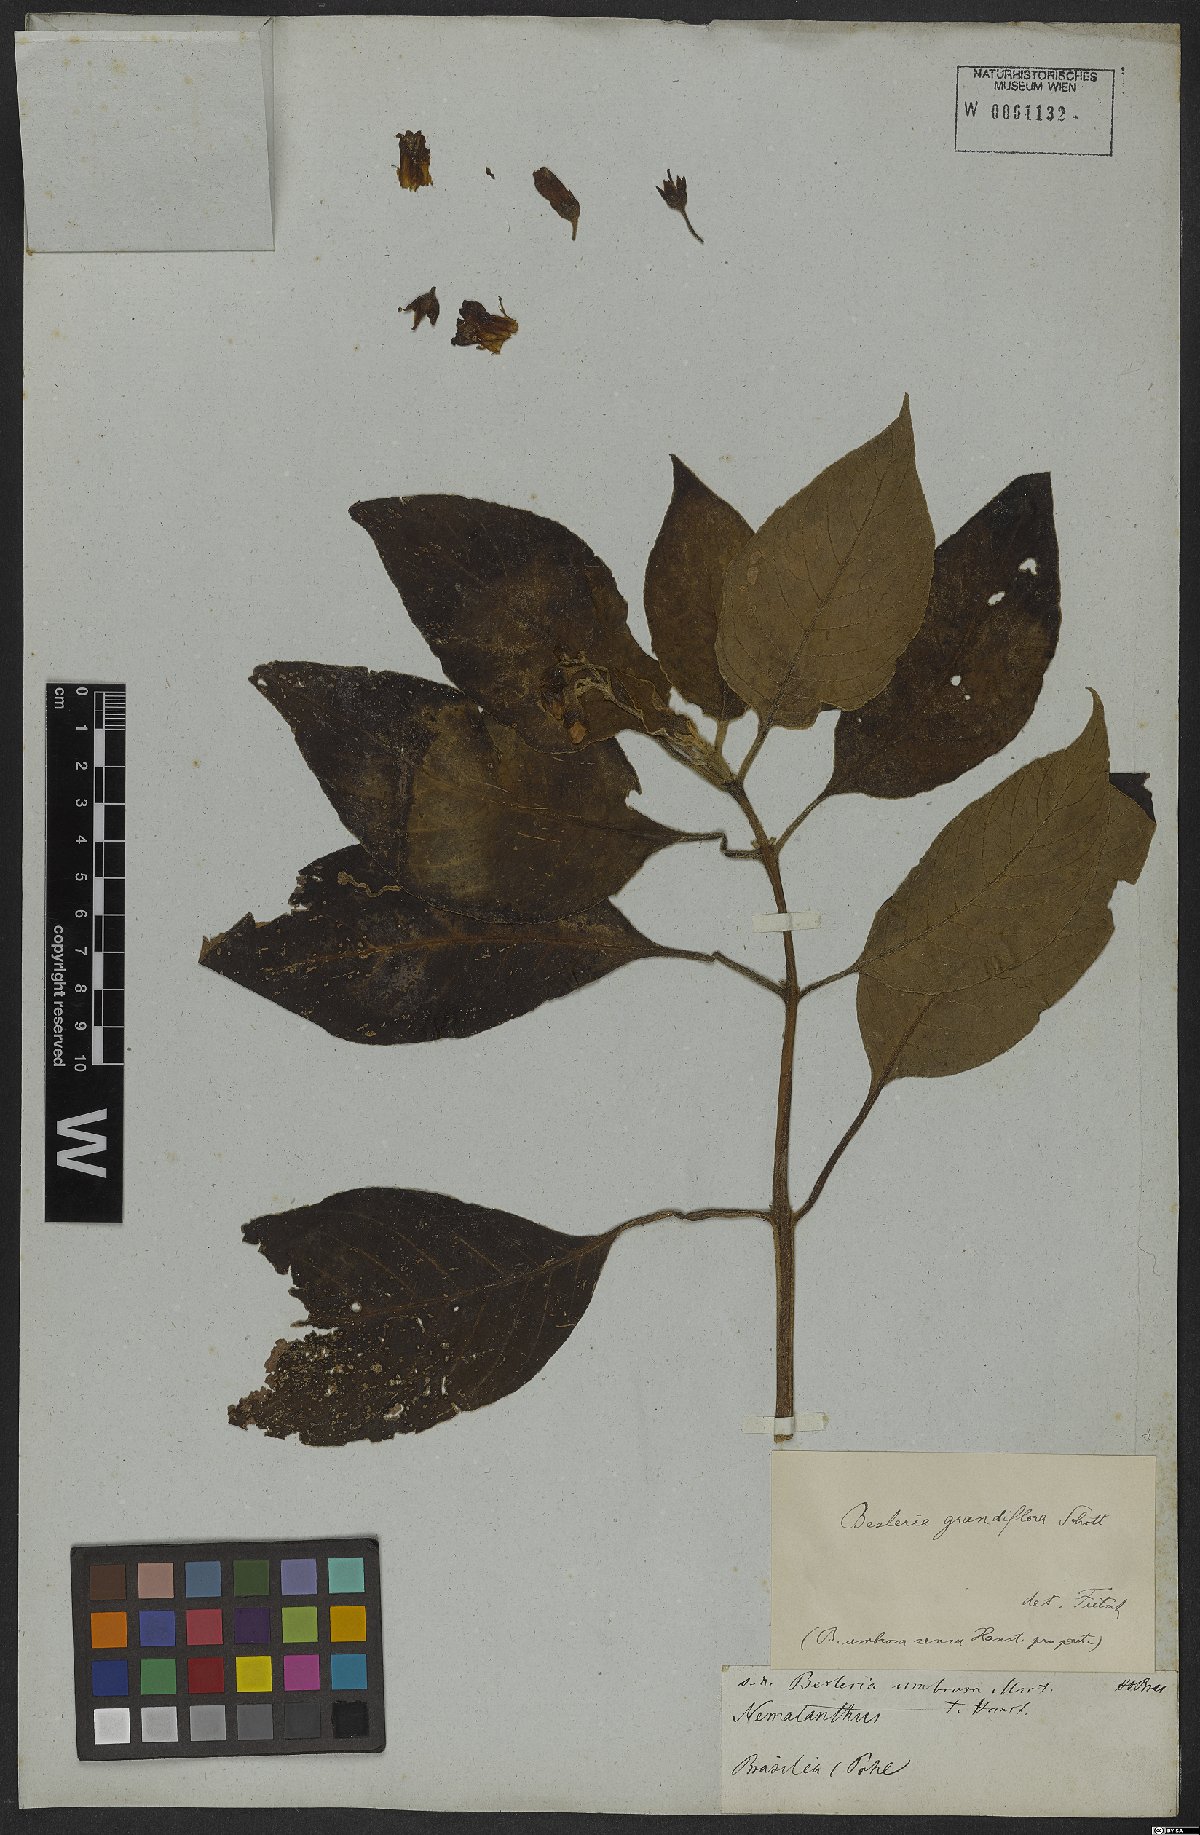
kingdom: Plantae
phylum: Tracheophyta
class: Magnoliopsida
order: Lamiales
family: Gesneriaceae
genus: Kohleria
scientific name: Kohleria tigridia
